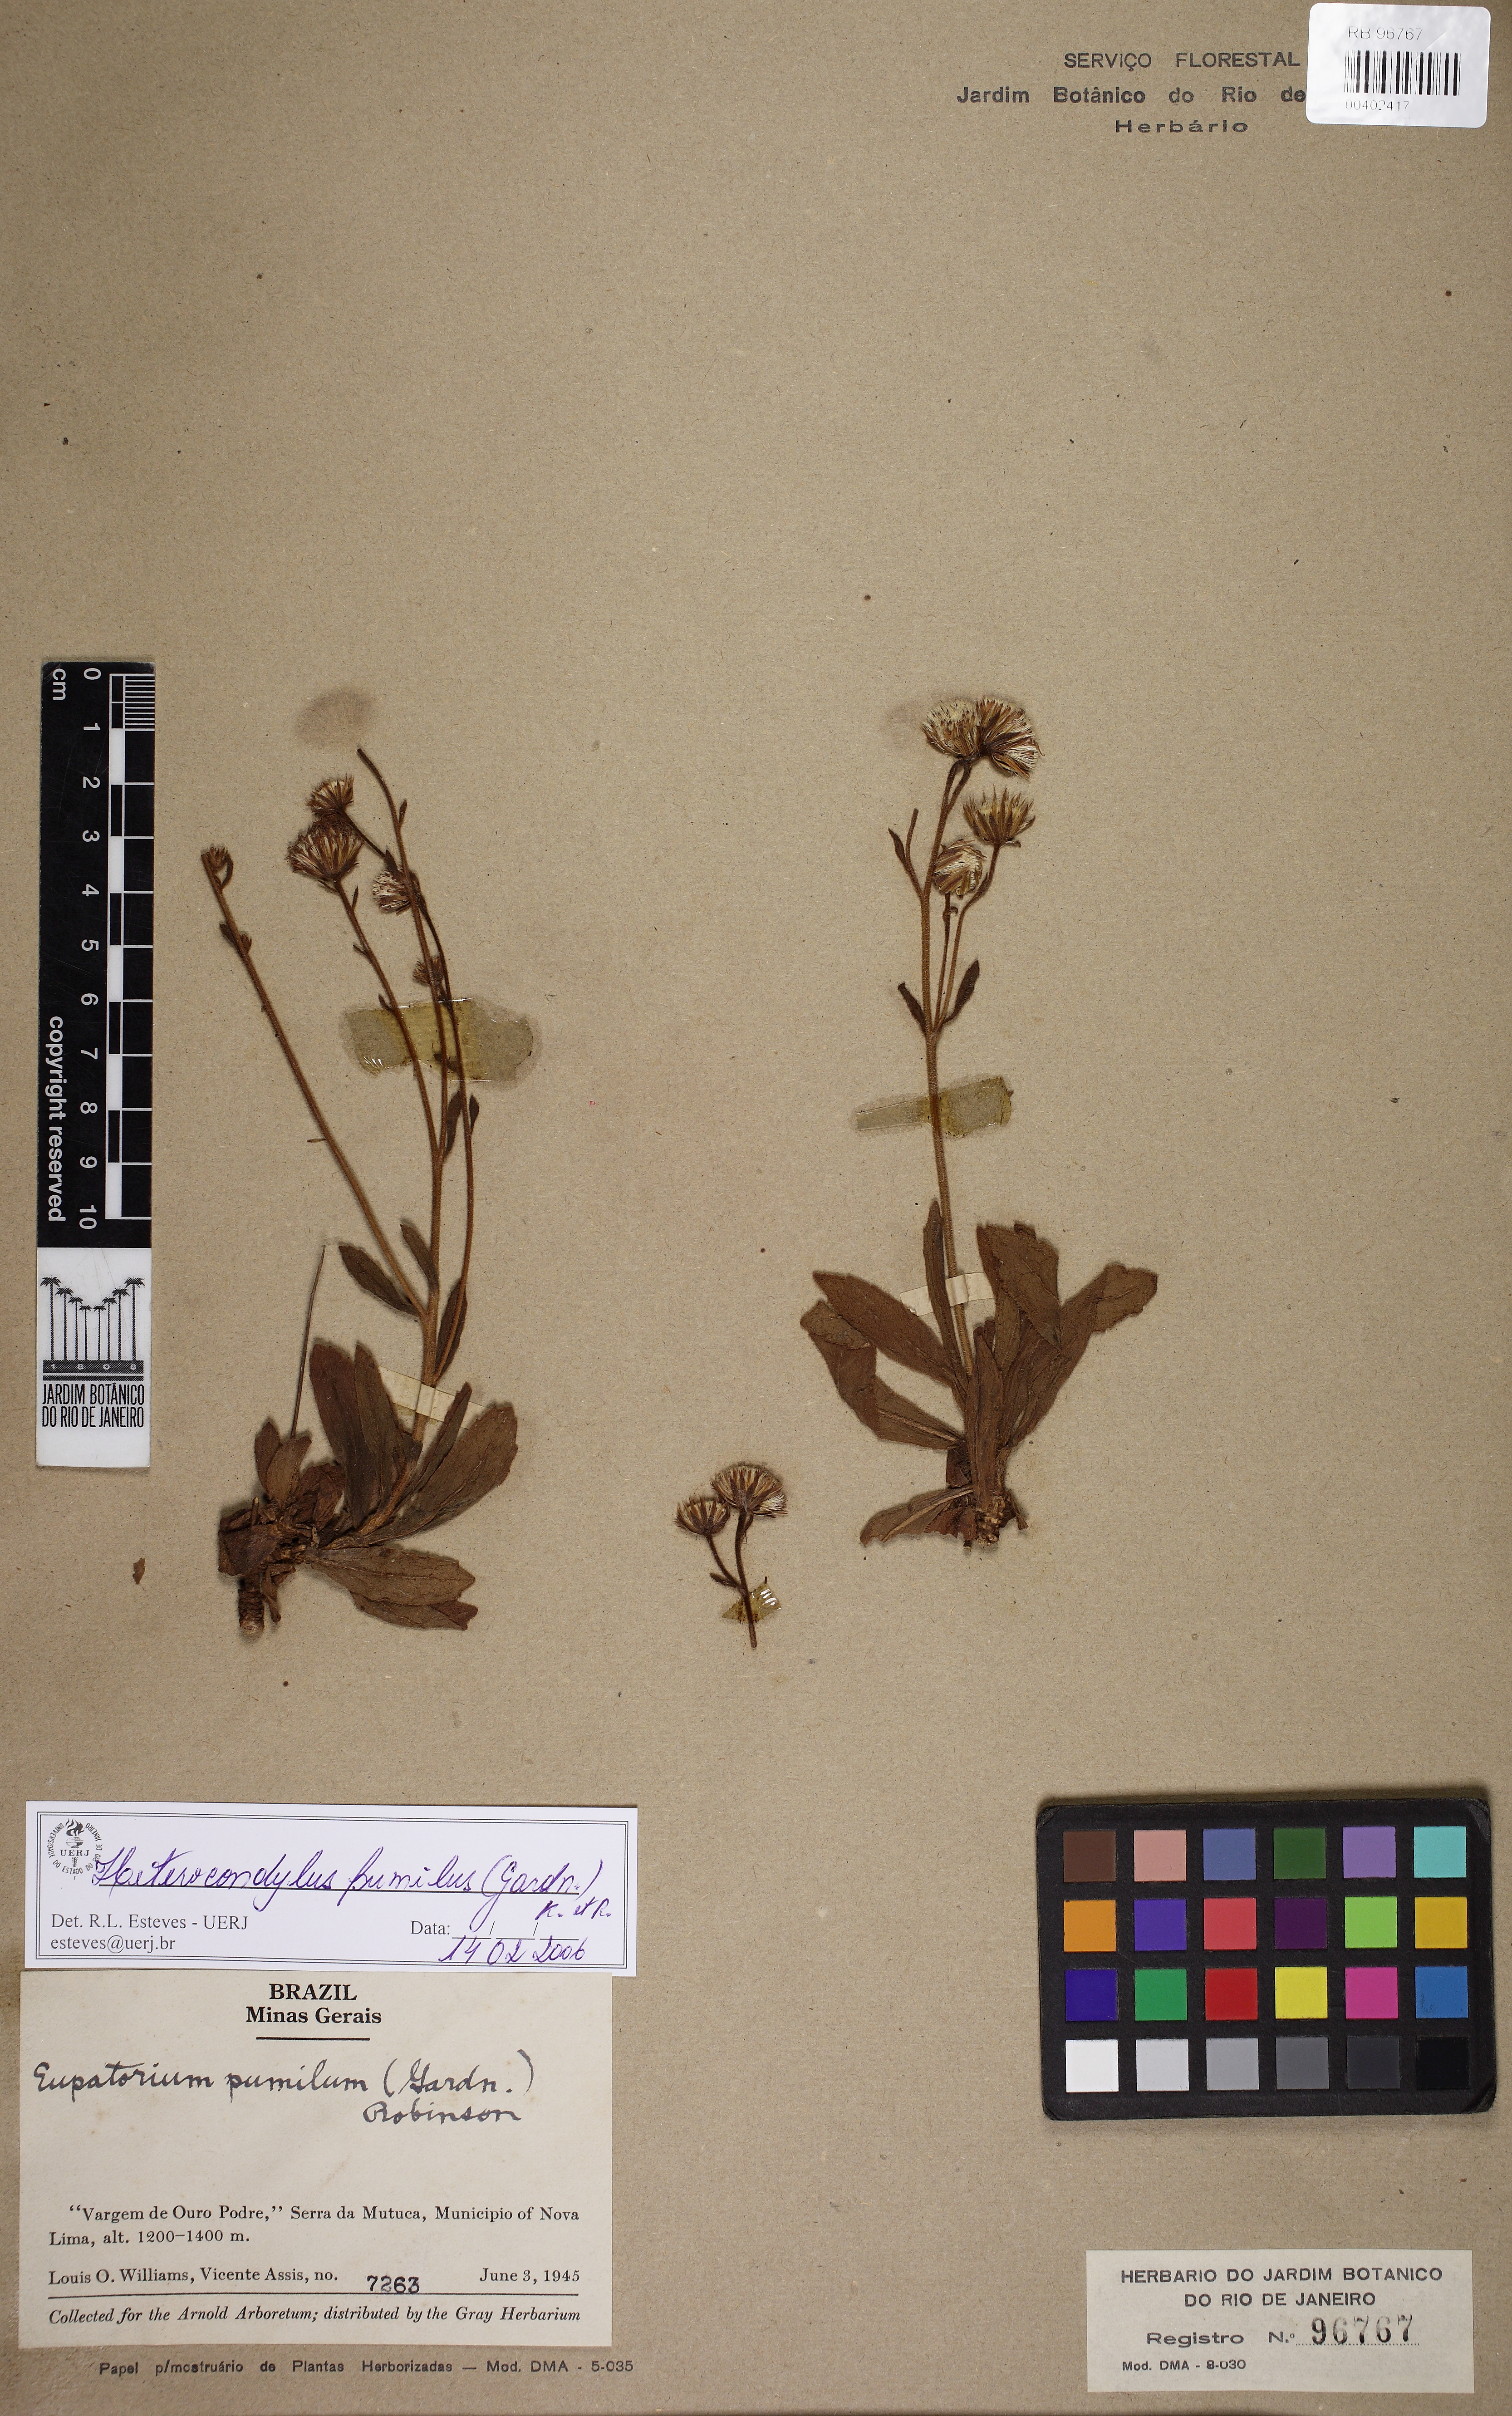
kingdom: Plantae
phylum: Tracheophyta
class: Magnoliopsida
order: Asterales
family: Asteraceae
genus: Heterocondylus
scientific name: Heterocondylus pumilus
